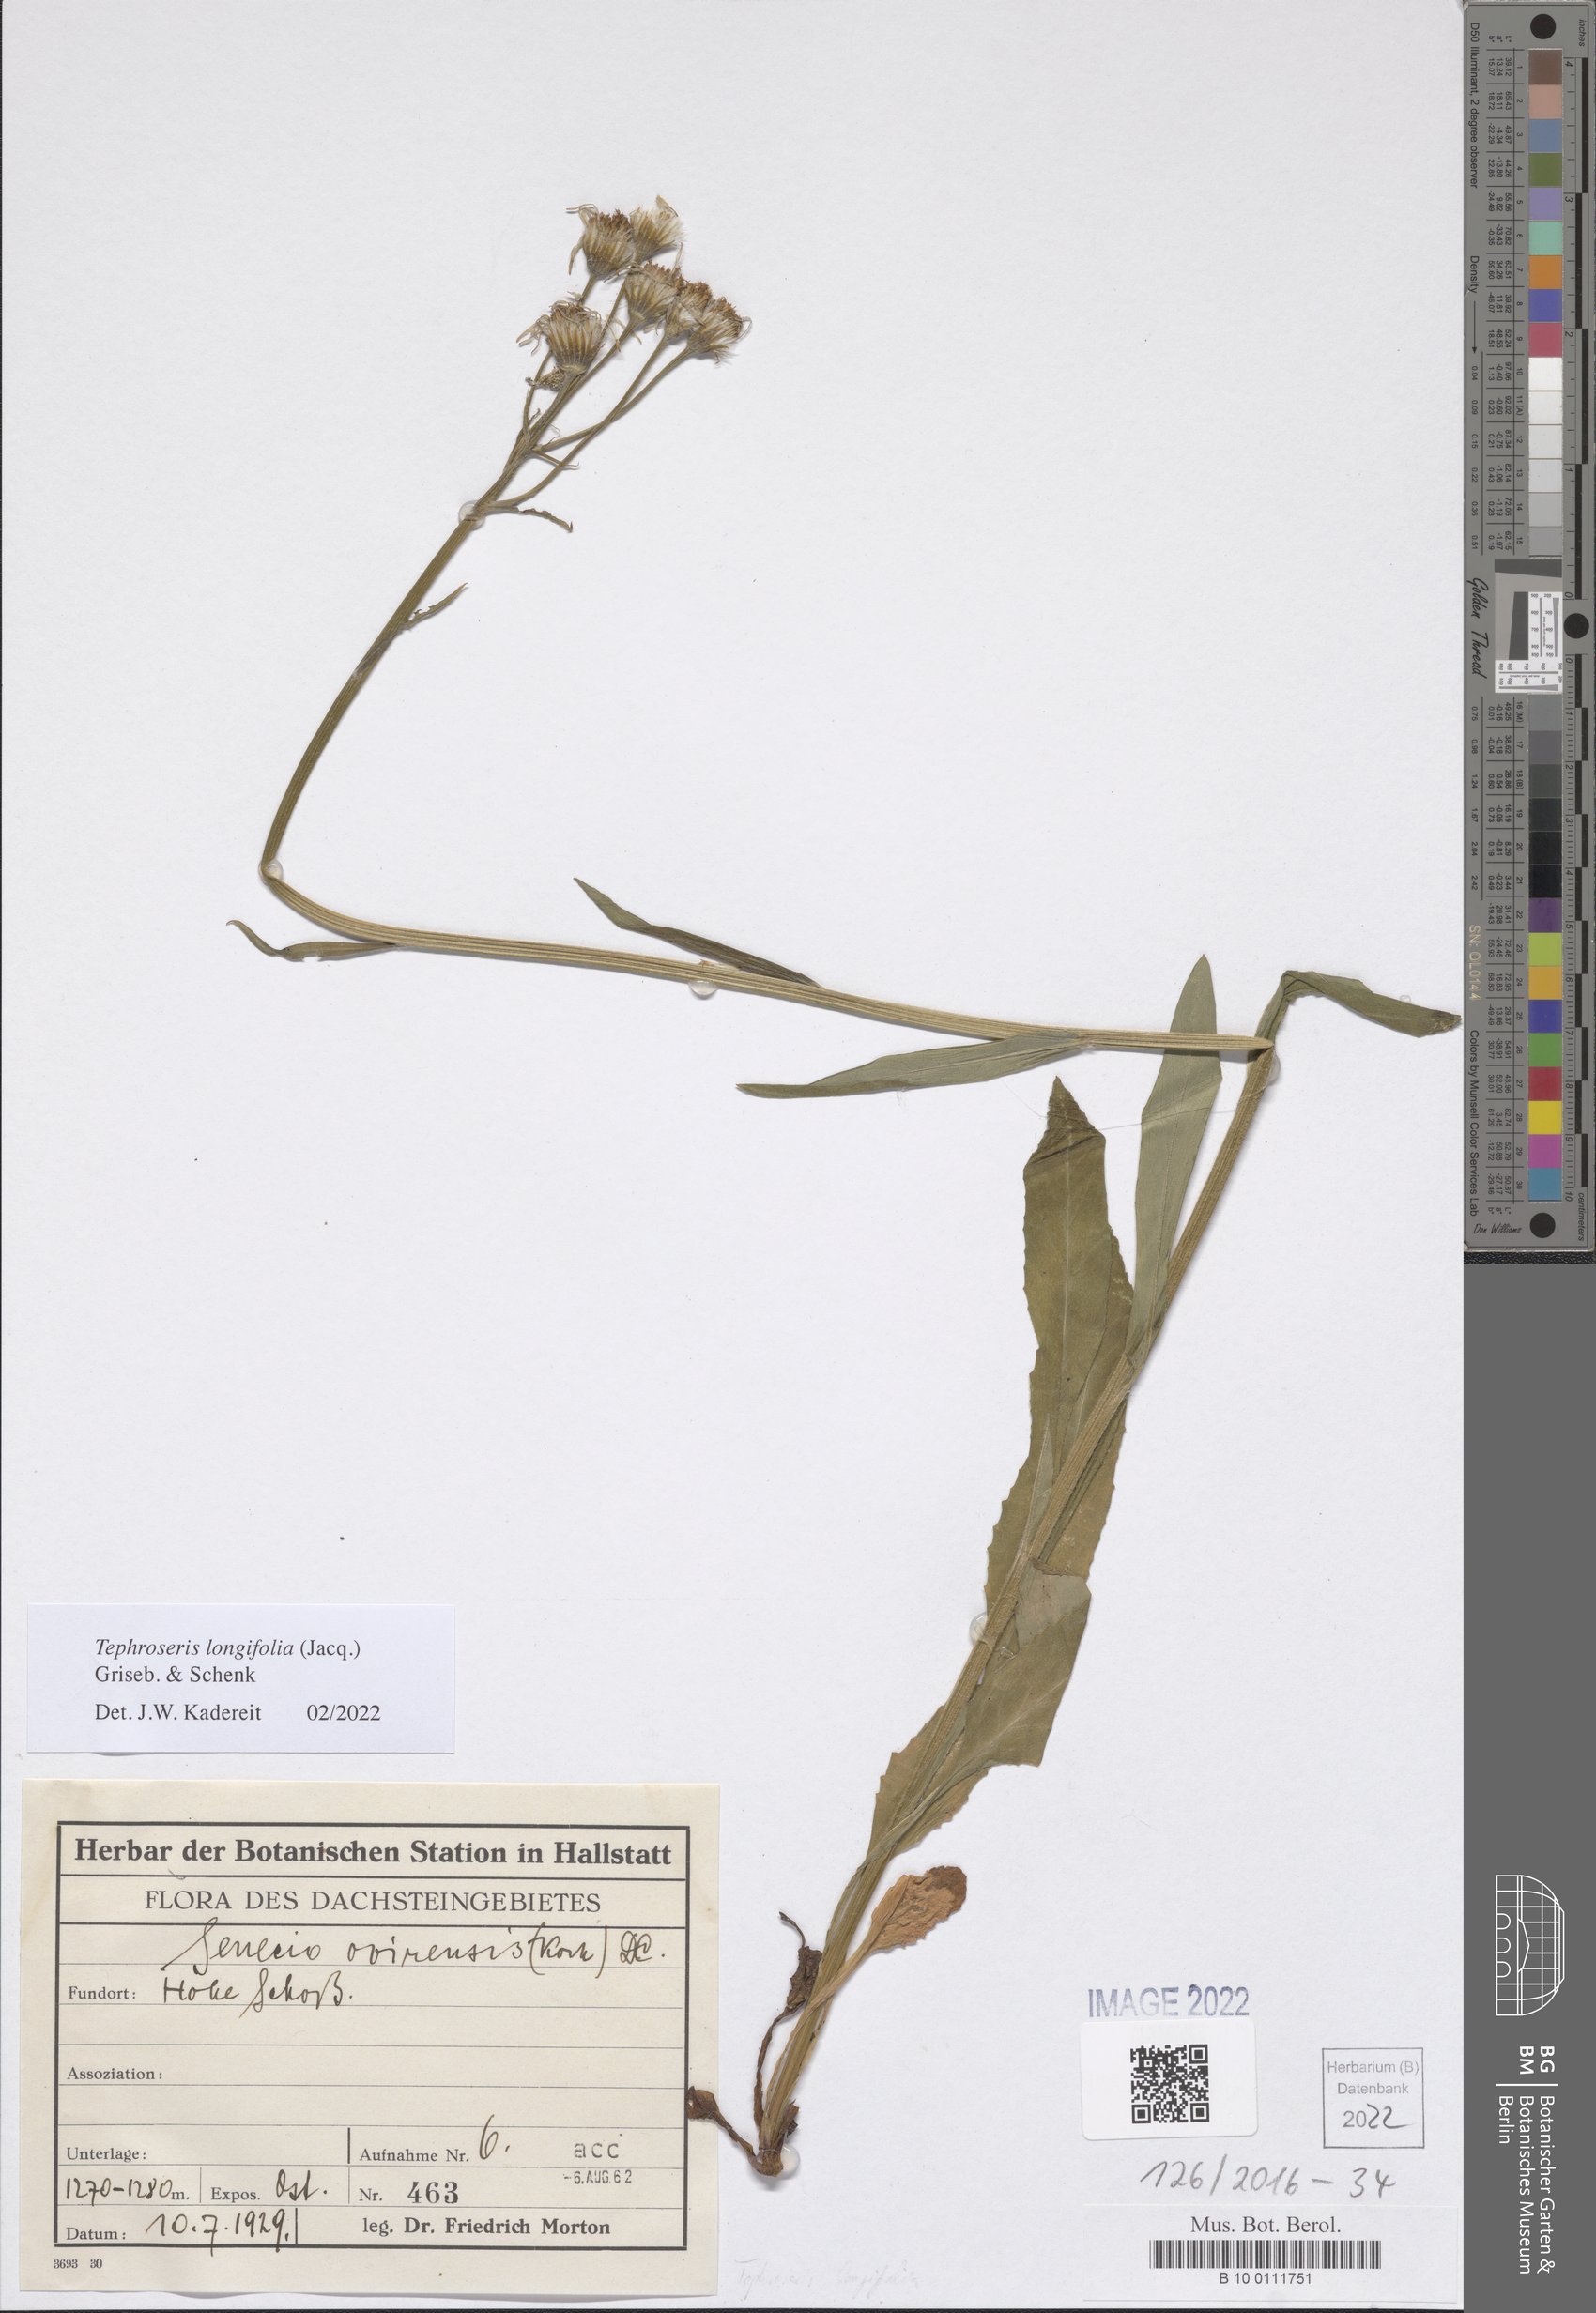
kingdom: Plantae
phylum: Tracheophyta
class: Magnoliopsida
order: Asterales
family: Asteraceae
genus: Tephroseris
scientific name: Tephroseris longifolia
